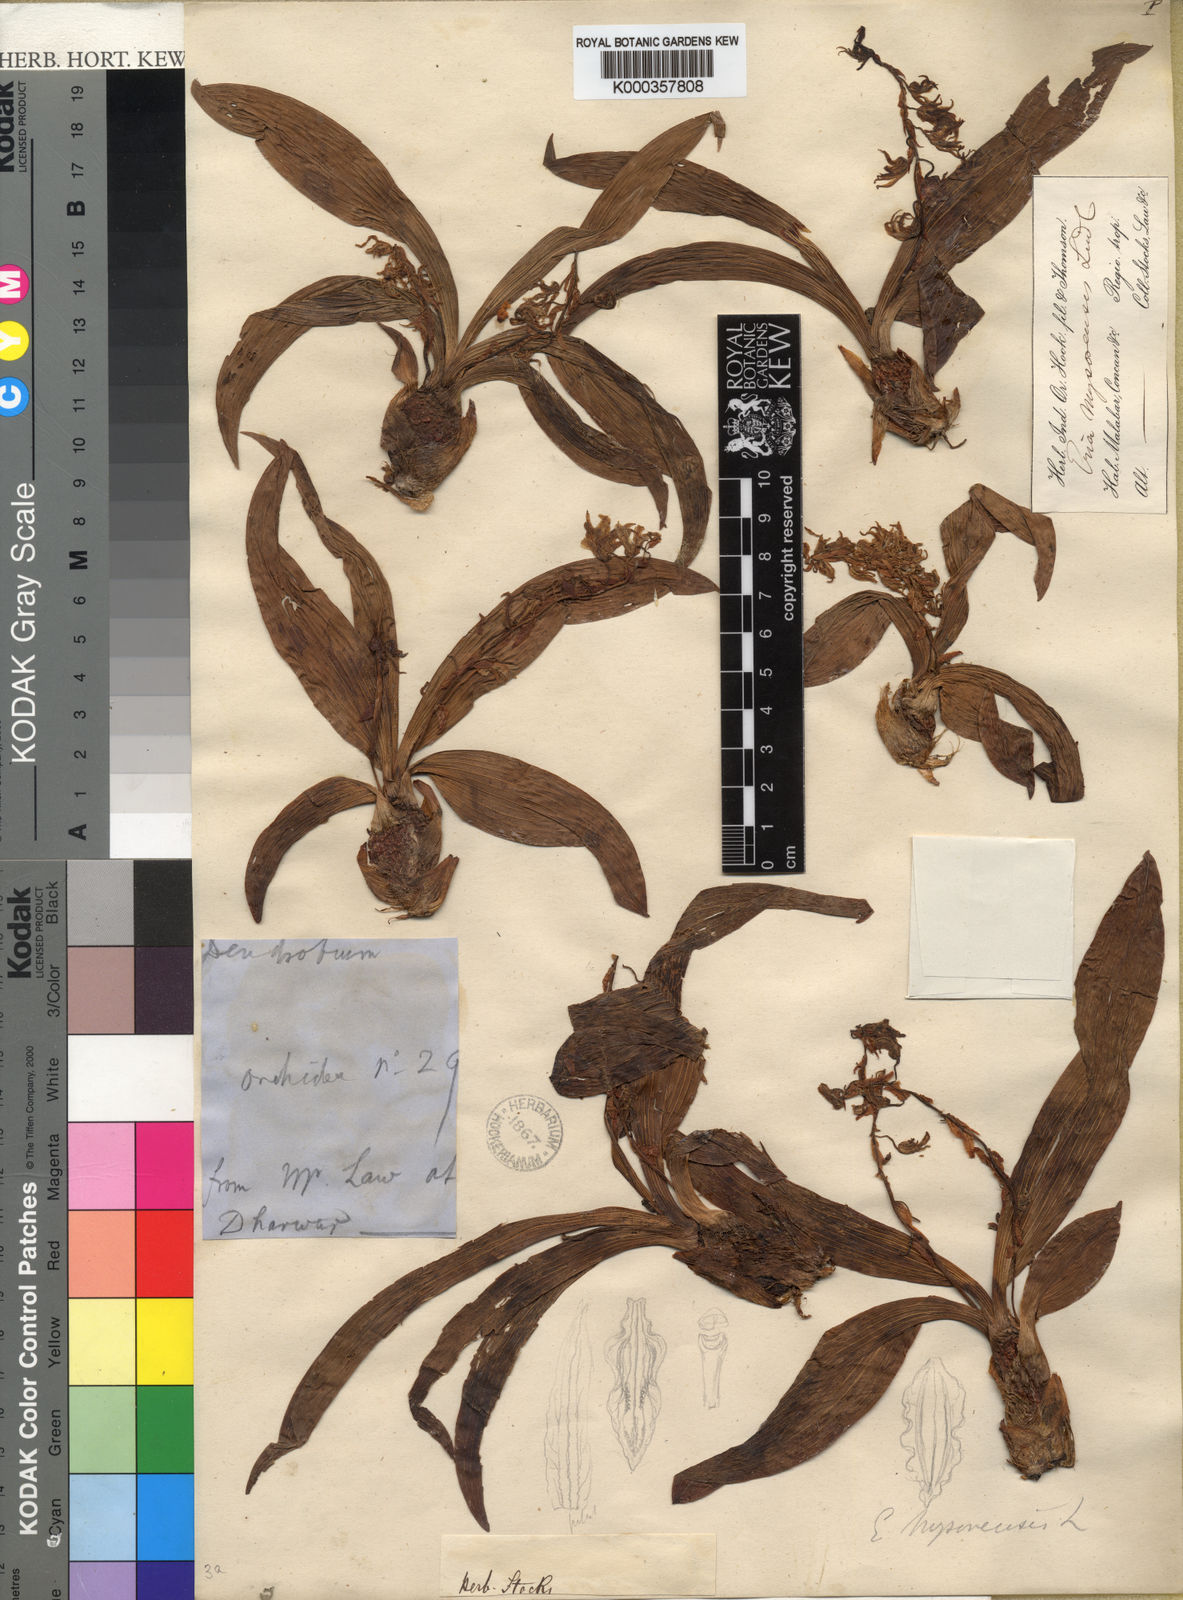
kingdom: Plantae
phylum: Tracheophyta
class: Liliopsida
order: Asparagales
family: Orchidaceae
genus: Pinalia
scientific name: Pinalia mysorensis
